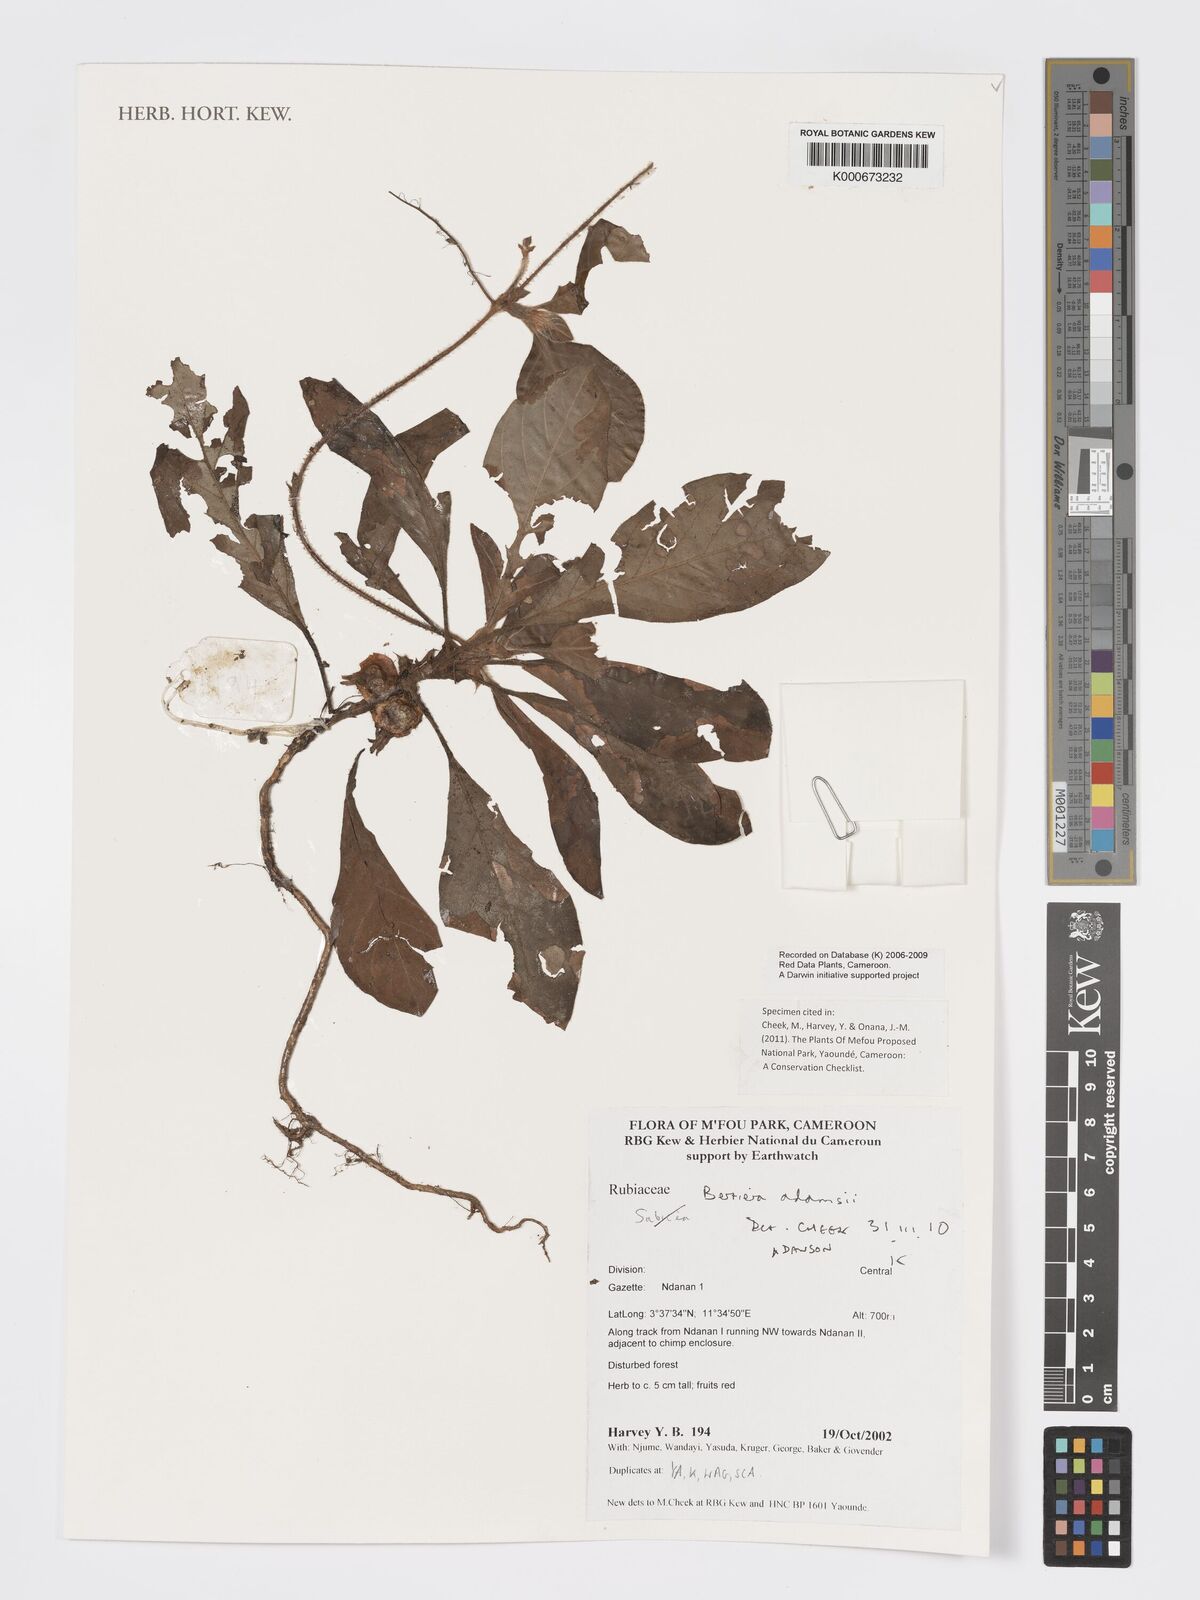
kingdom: Plantae
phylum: Tracheophyta
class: Magnoliopsida
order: Gentianales
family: Rubiaceae
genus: Bertiera
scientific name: Bertiera
